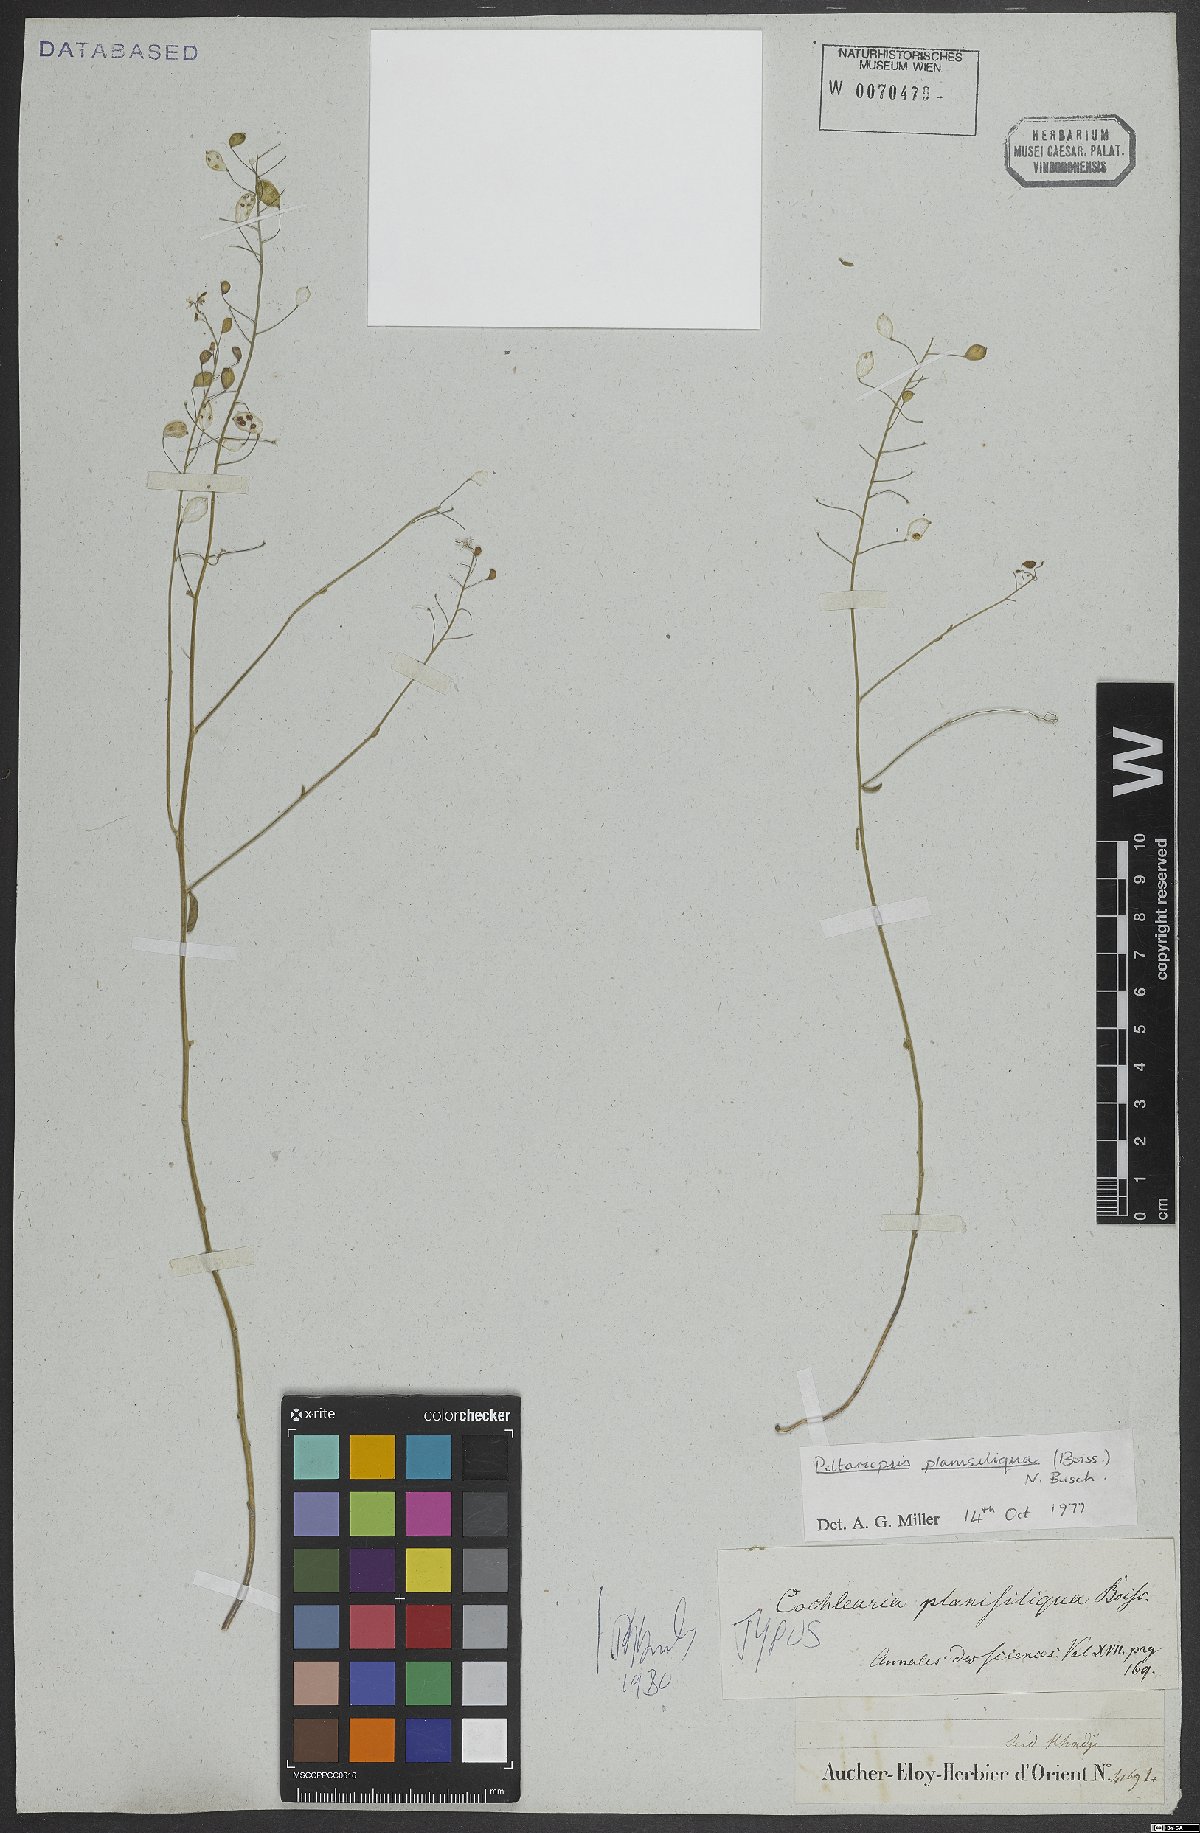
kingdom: Plantae
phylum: Tracheophyta
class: Magnoliopsida
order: Brassicales
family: Brassicaceae
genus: Peltariopsis
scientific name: Peltariopsis planisiliqua
